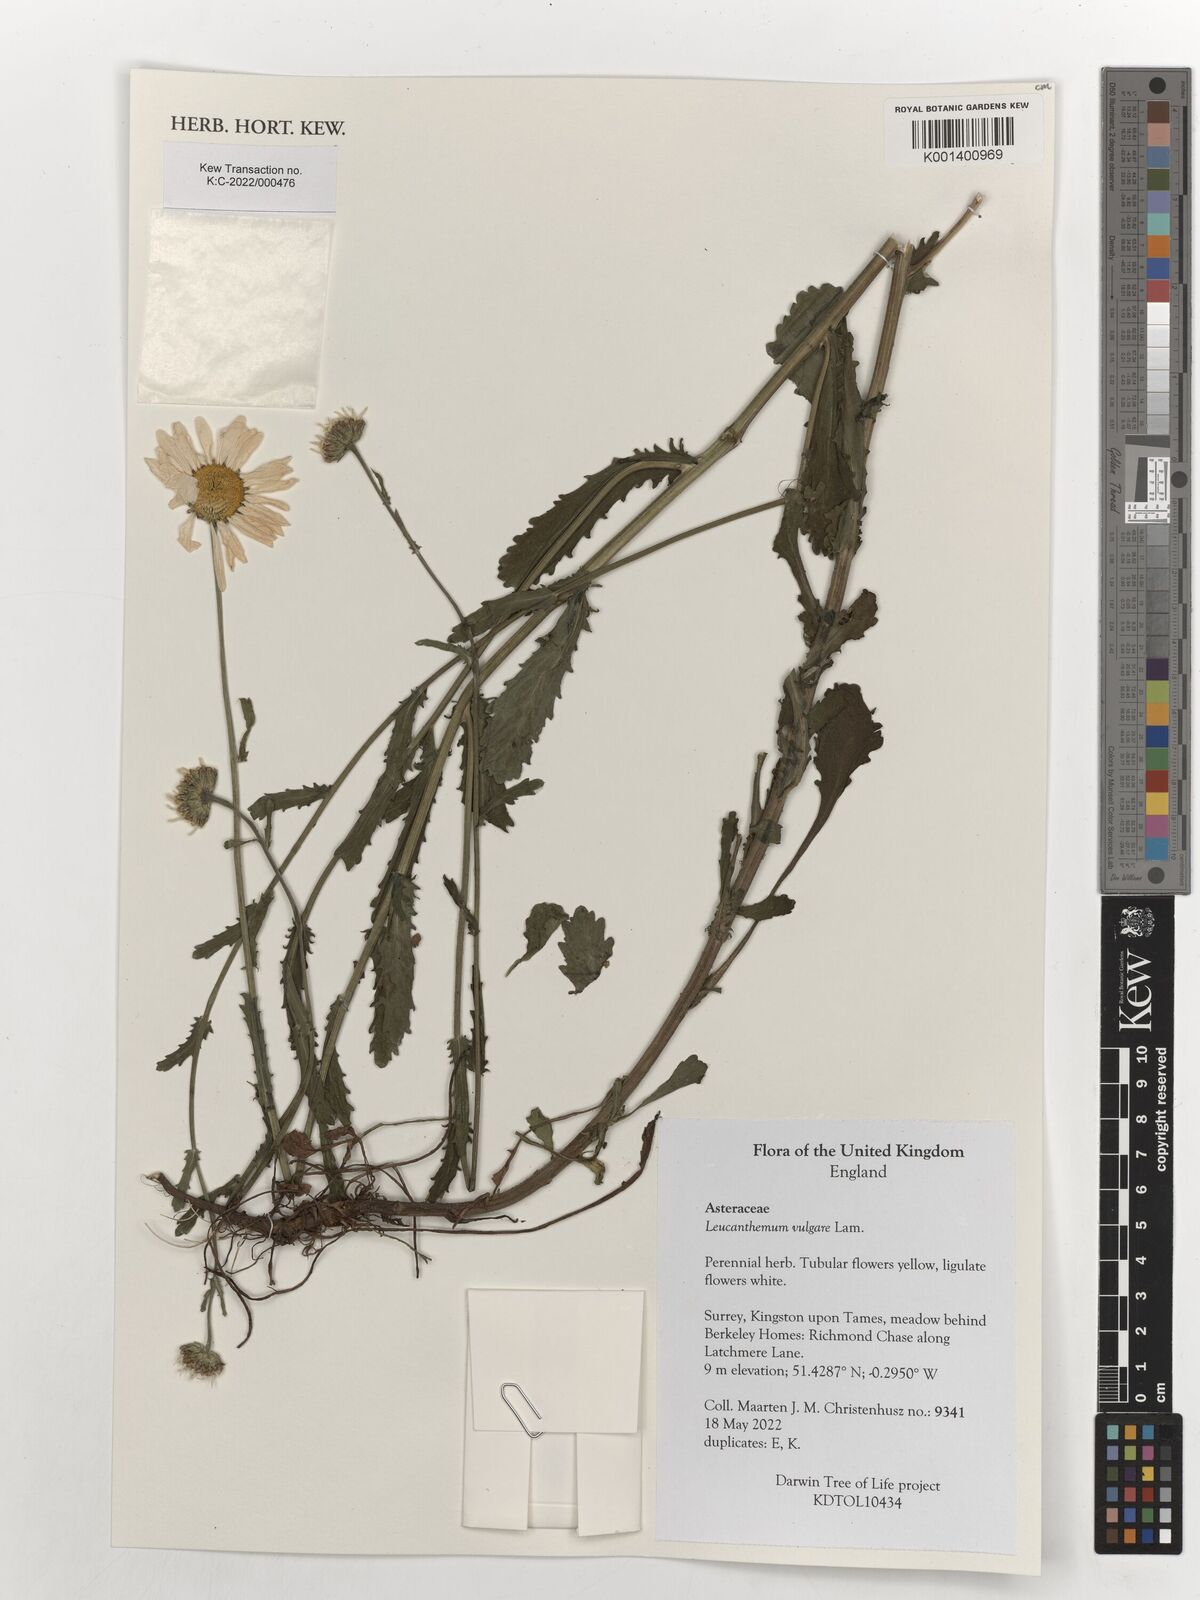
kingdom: Plantae
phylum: Tracheophyta
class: Magnoliopsida
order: Asterales
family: Asteraceae
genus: Leucanthemum
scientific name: Leucanthemum vulgare
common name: Oxeye daisy
